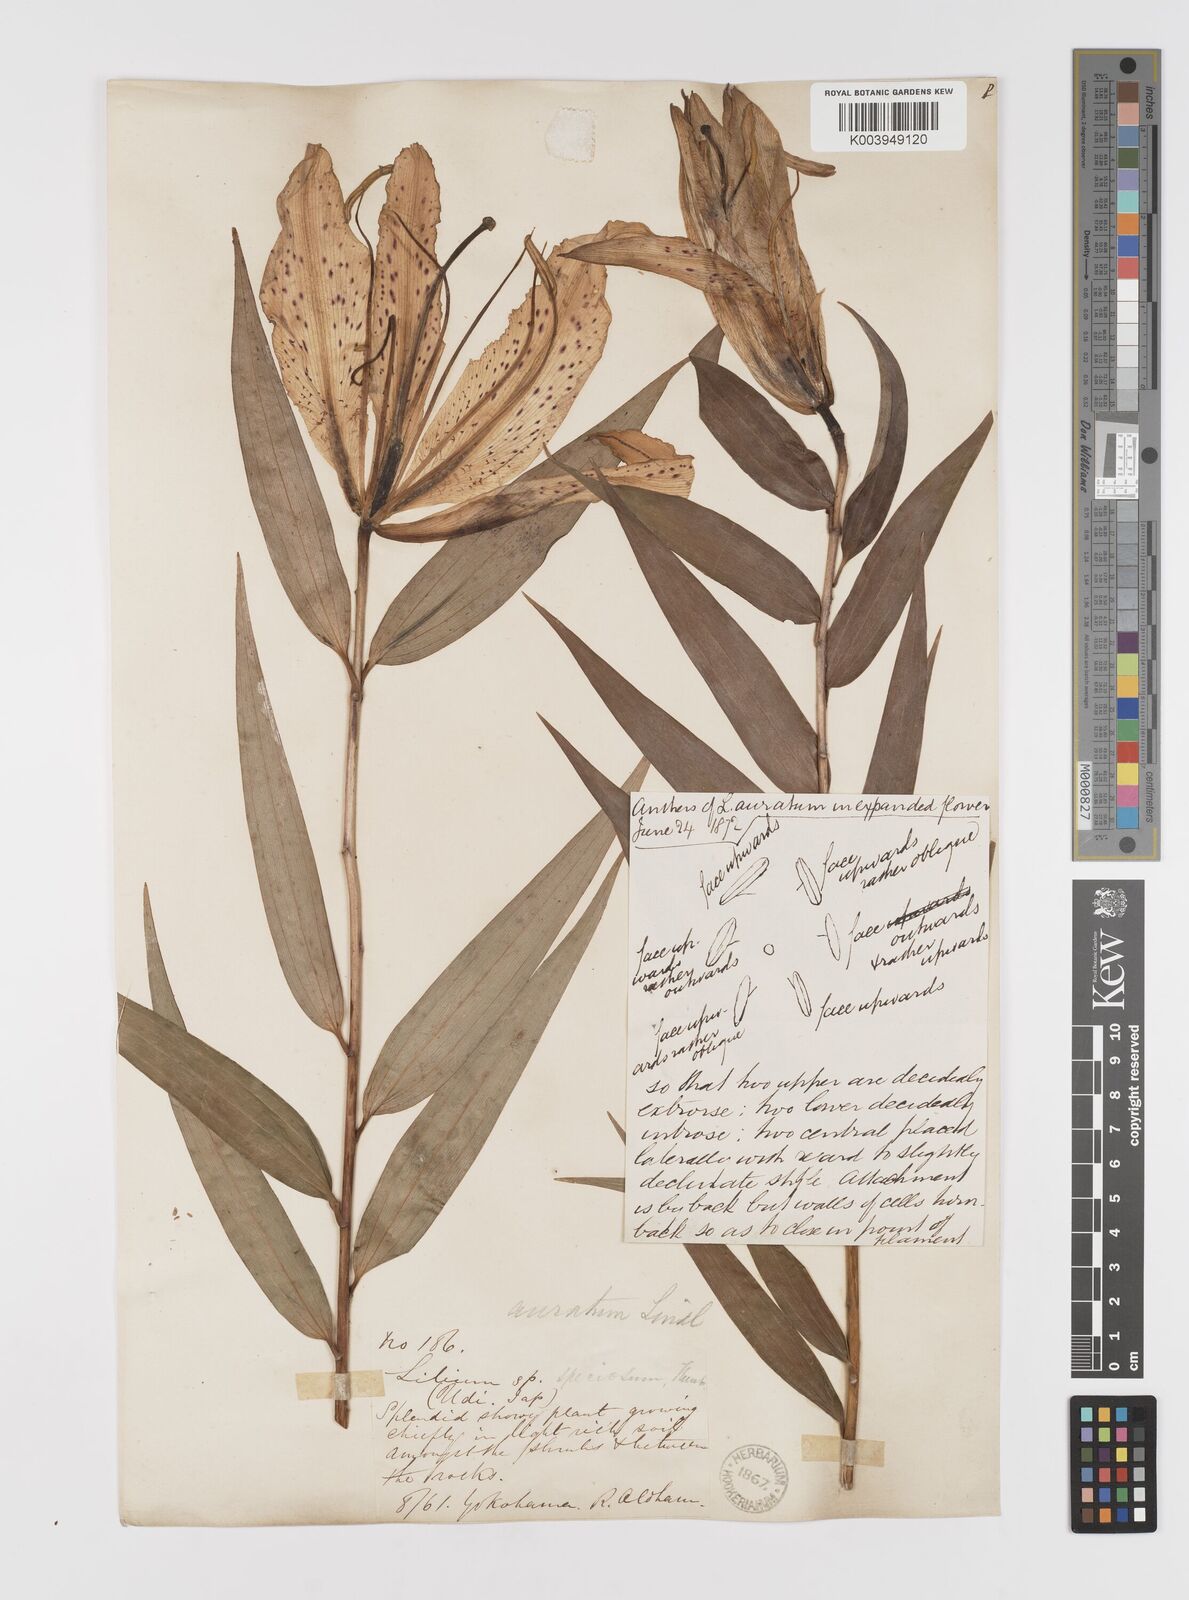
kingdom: Plantae
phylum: Tracheophyta
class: Liliopsida
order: Liliales
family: Liliaceae
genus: Lilium
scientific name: Lilium auratum
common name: Golden-ray lily
